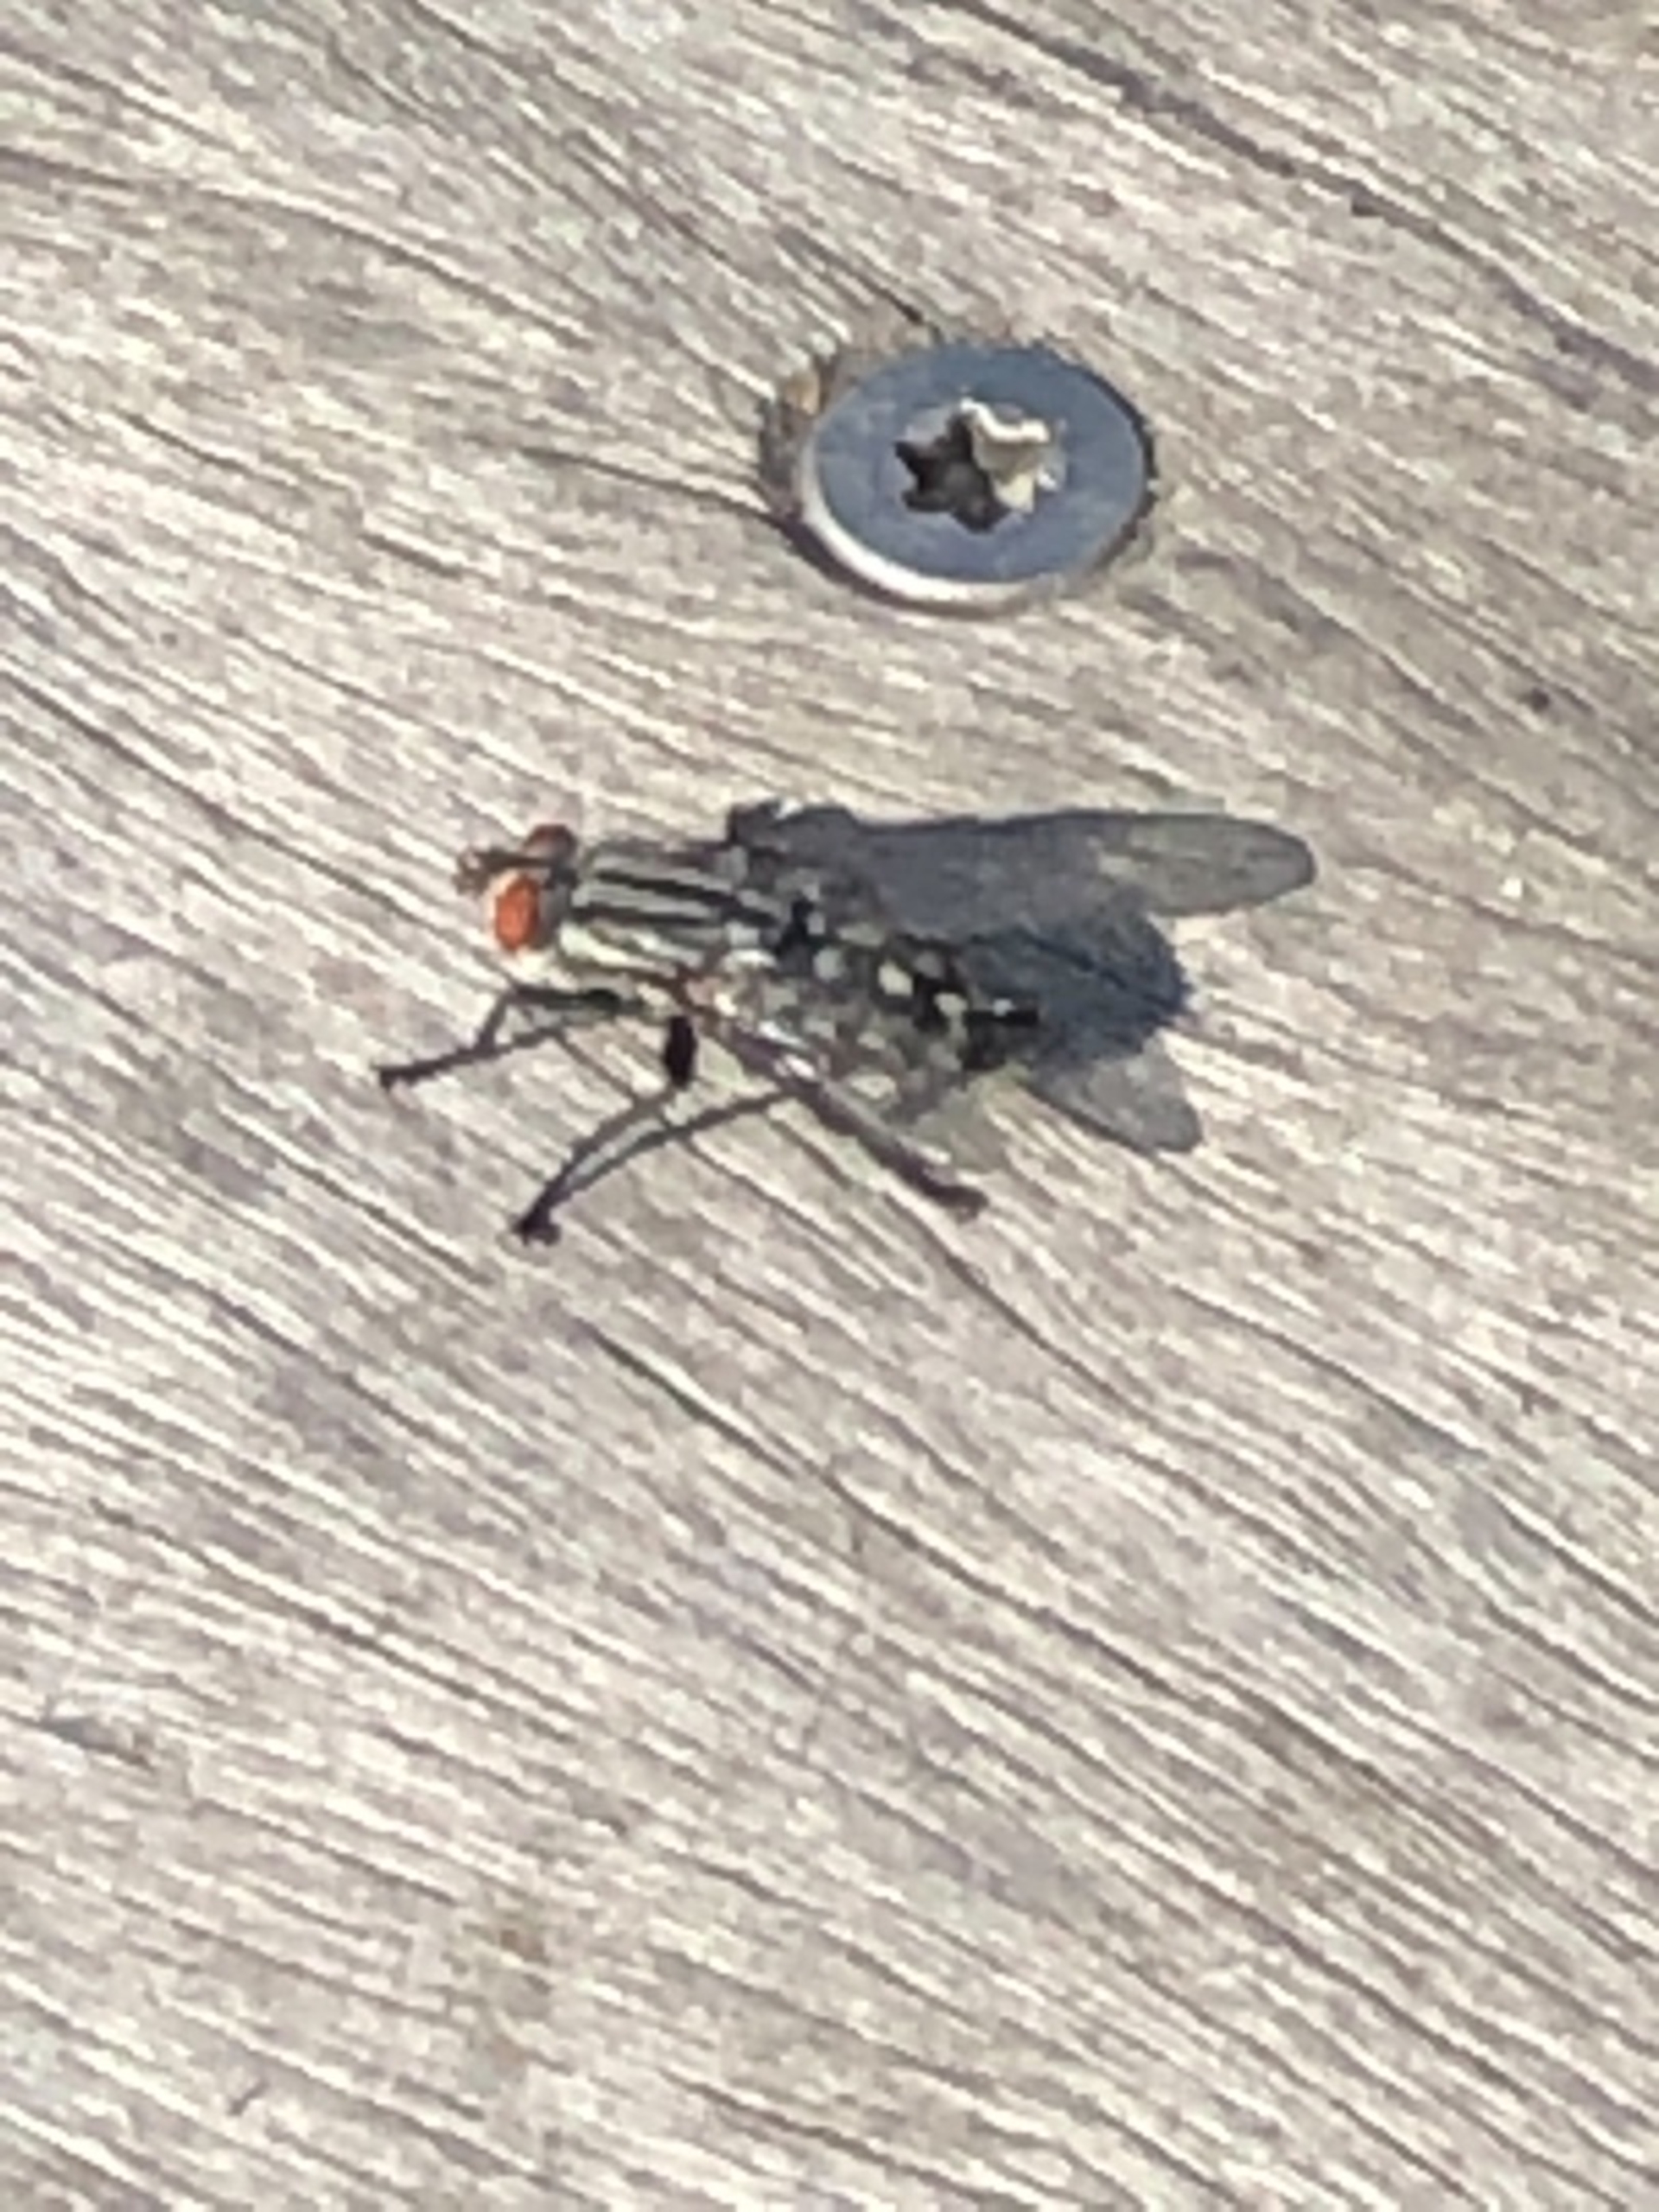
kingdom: Animalia
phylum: Arthropoda
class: Insecta
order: Diptera
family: Sarcophagidae
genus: Sarcophaga
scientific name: Sarcophaga
